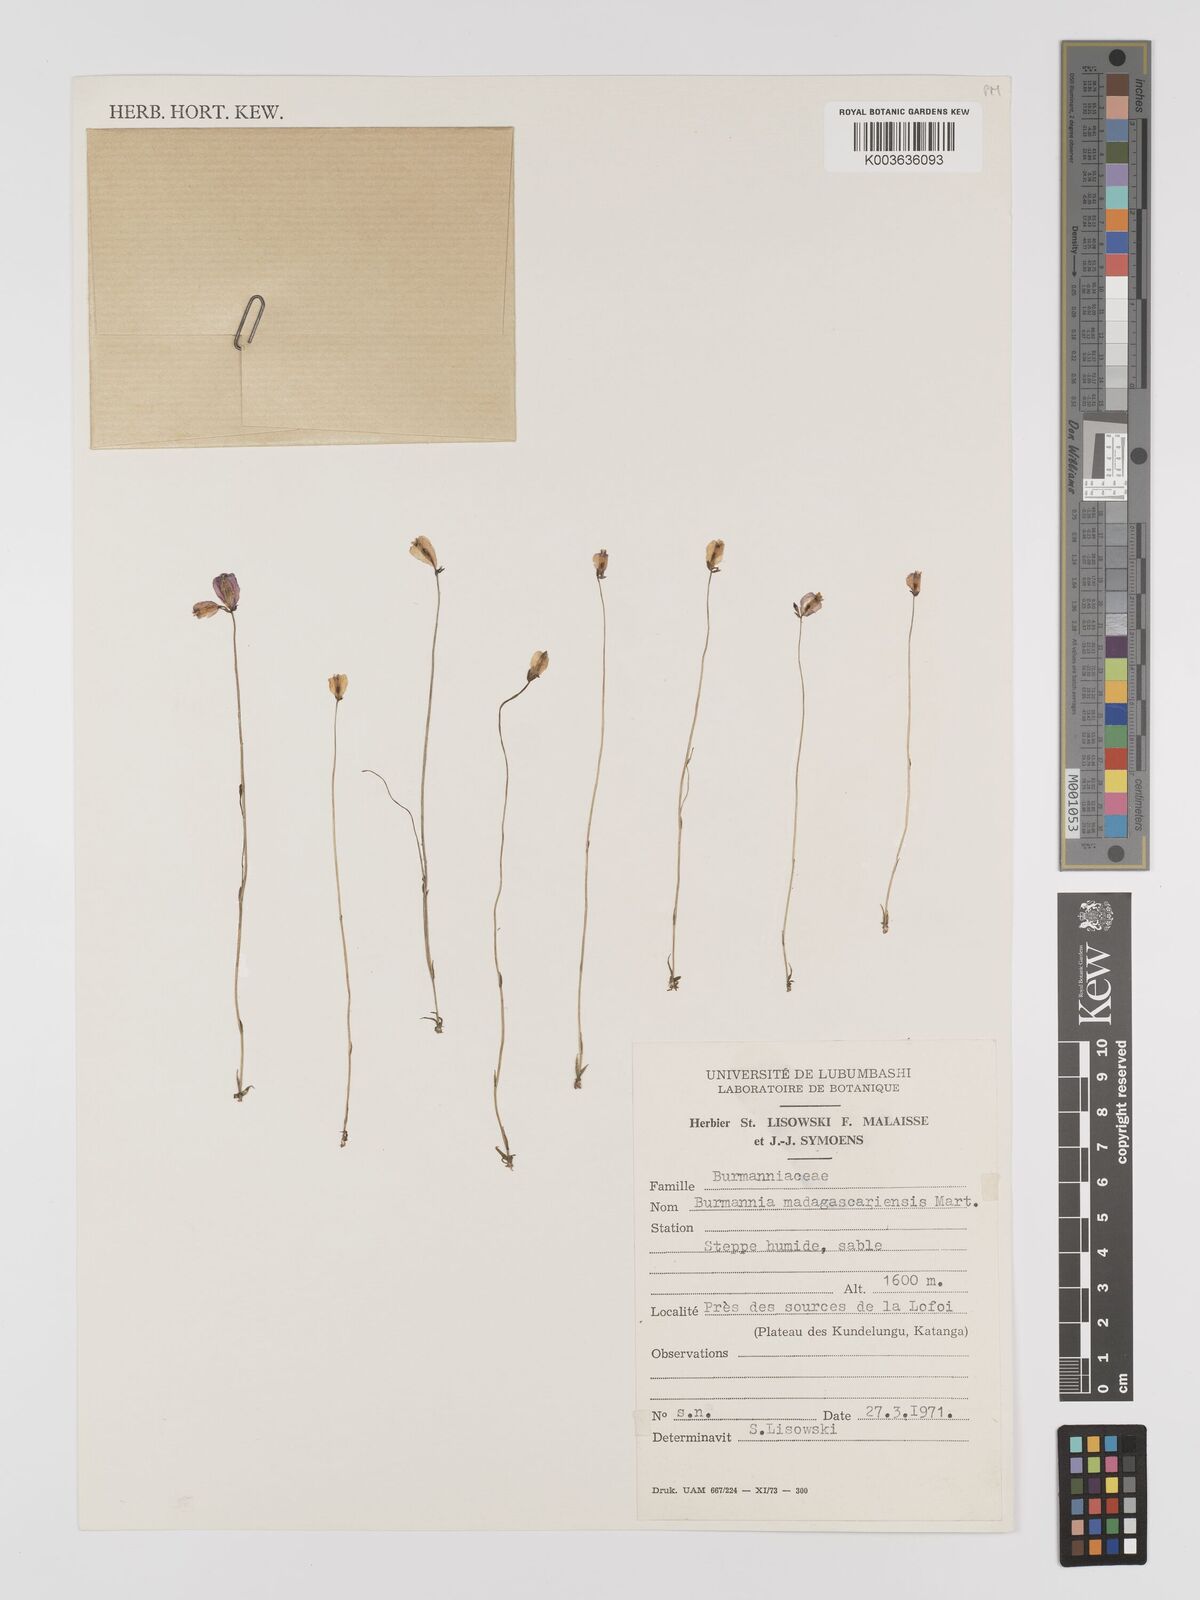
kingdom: Plantae
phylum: Tracheophyta
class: Liliopsida
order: Dioscoreales
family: Burmanniaceae
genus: Burmannia
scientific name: Burmannia madagascariensis
